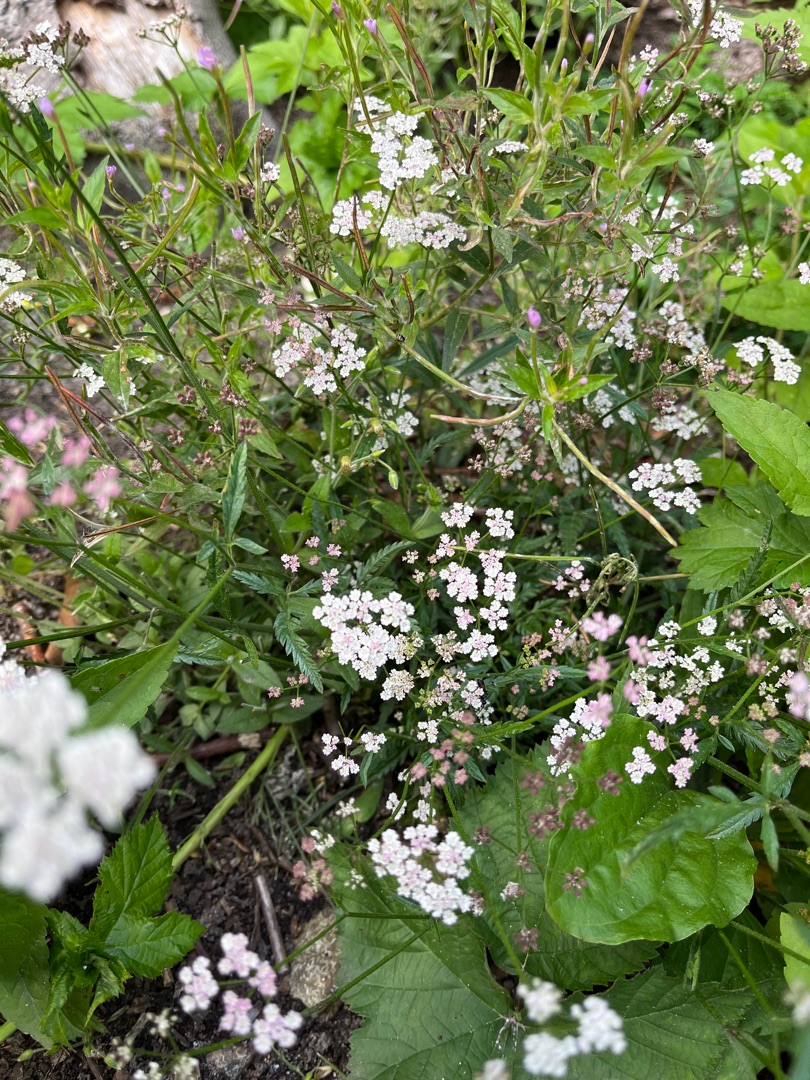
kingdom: Plantae
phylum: Tracheophyta
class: Magnoliopsida
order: Apiales
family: Apiaceae
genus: Torilis
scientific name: Torilis japonica
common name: Hvas randfrø
